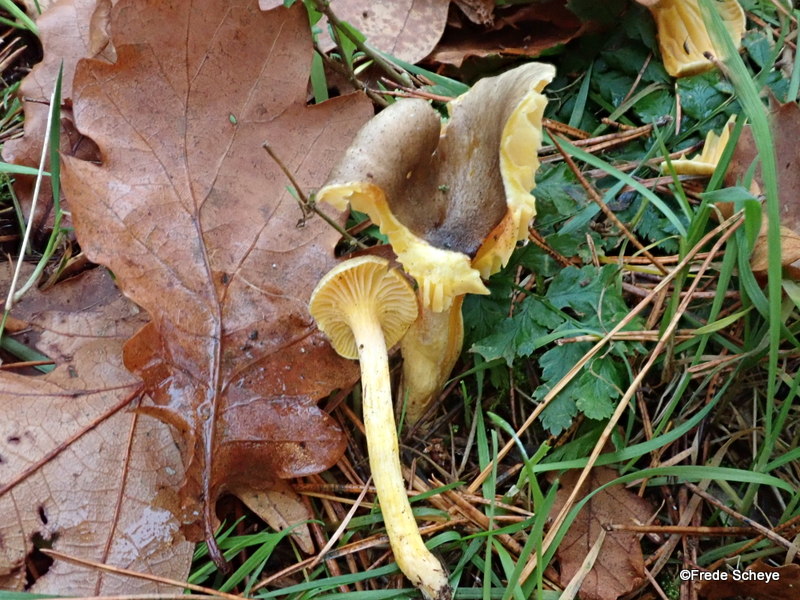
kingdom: Fungi
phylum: Basidiomycota
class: Agaricomycetes
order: Agaricales
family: Hygrophoraceae
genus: Hygrophorus
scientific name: Hygrophorus hypothejus
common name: frost-sneglehat
